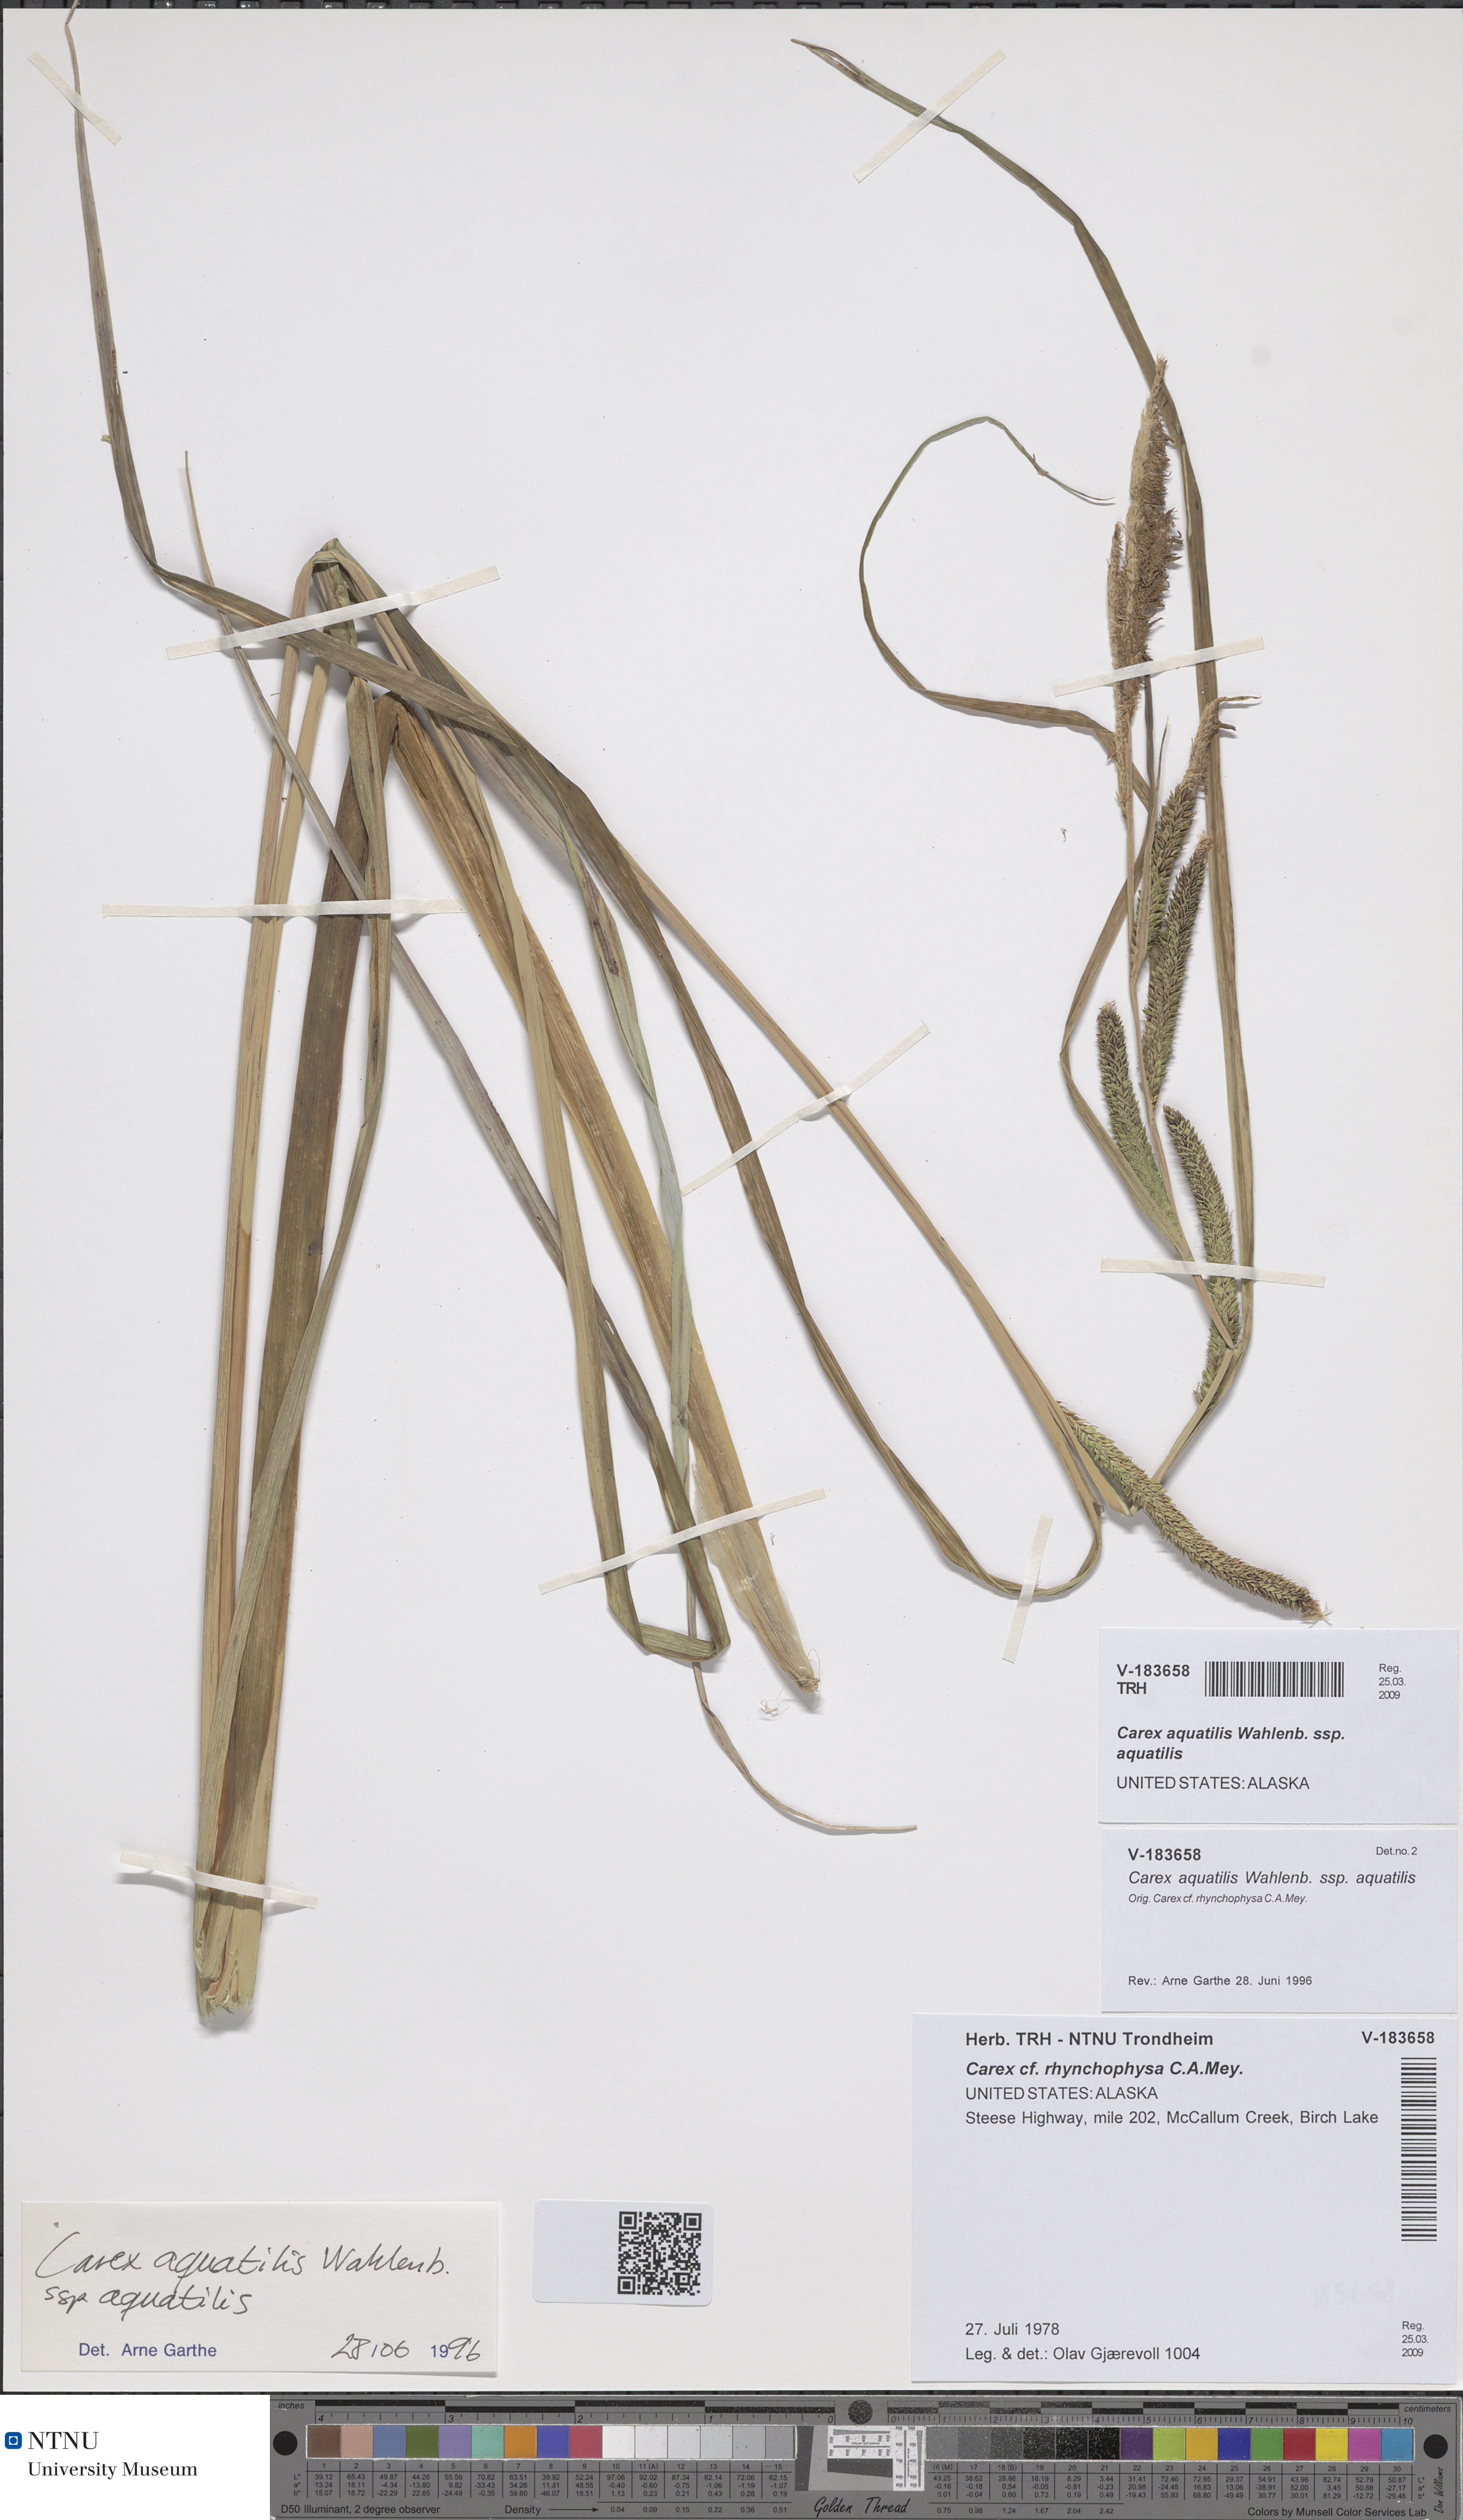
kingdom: Plantae
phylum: Tracheophyta
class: Liliopsida
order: Poales
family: Cyperaceae
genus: Carex
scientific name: Carex aquatilis
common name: Water sedge
